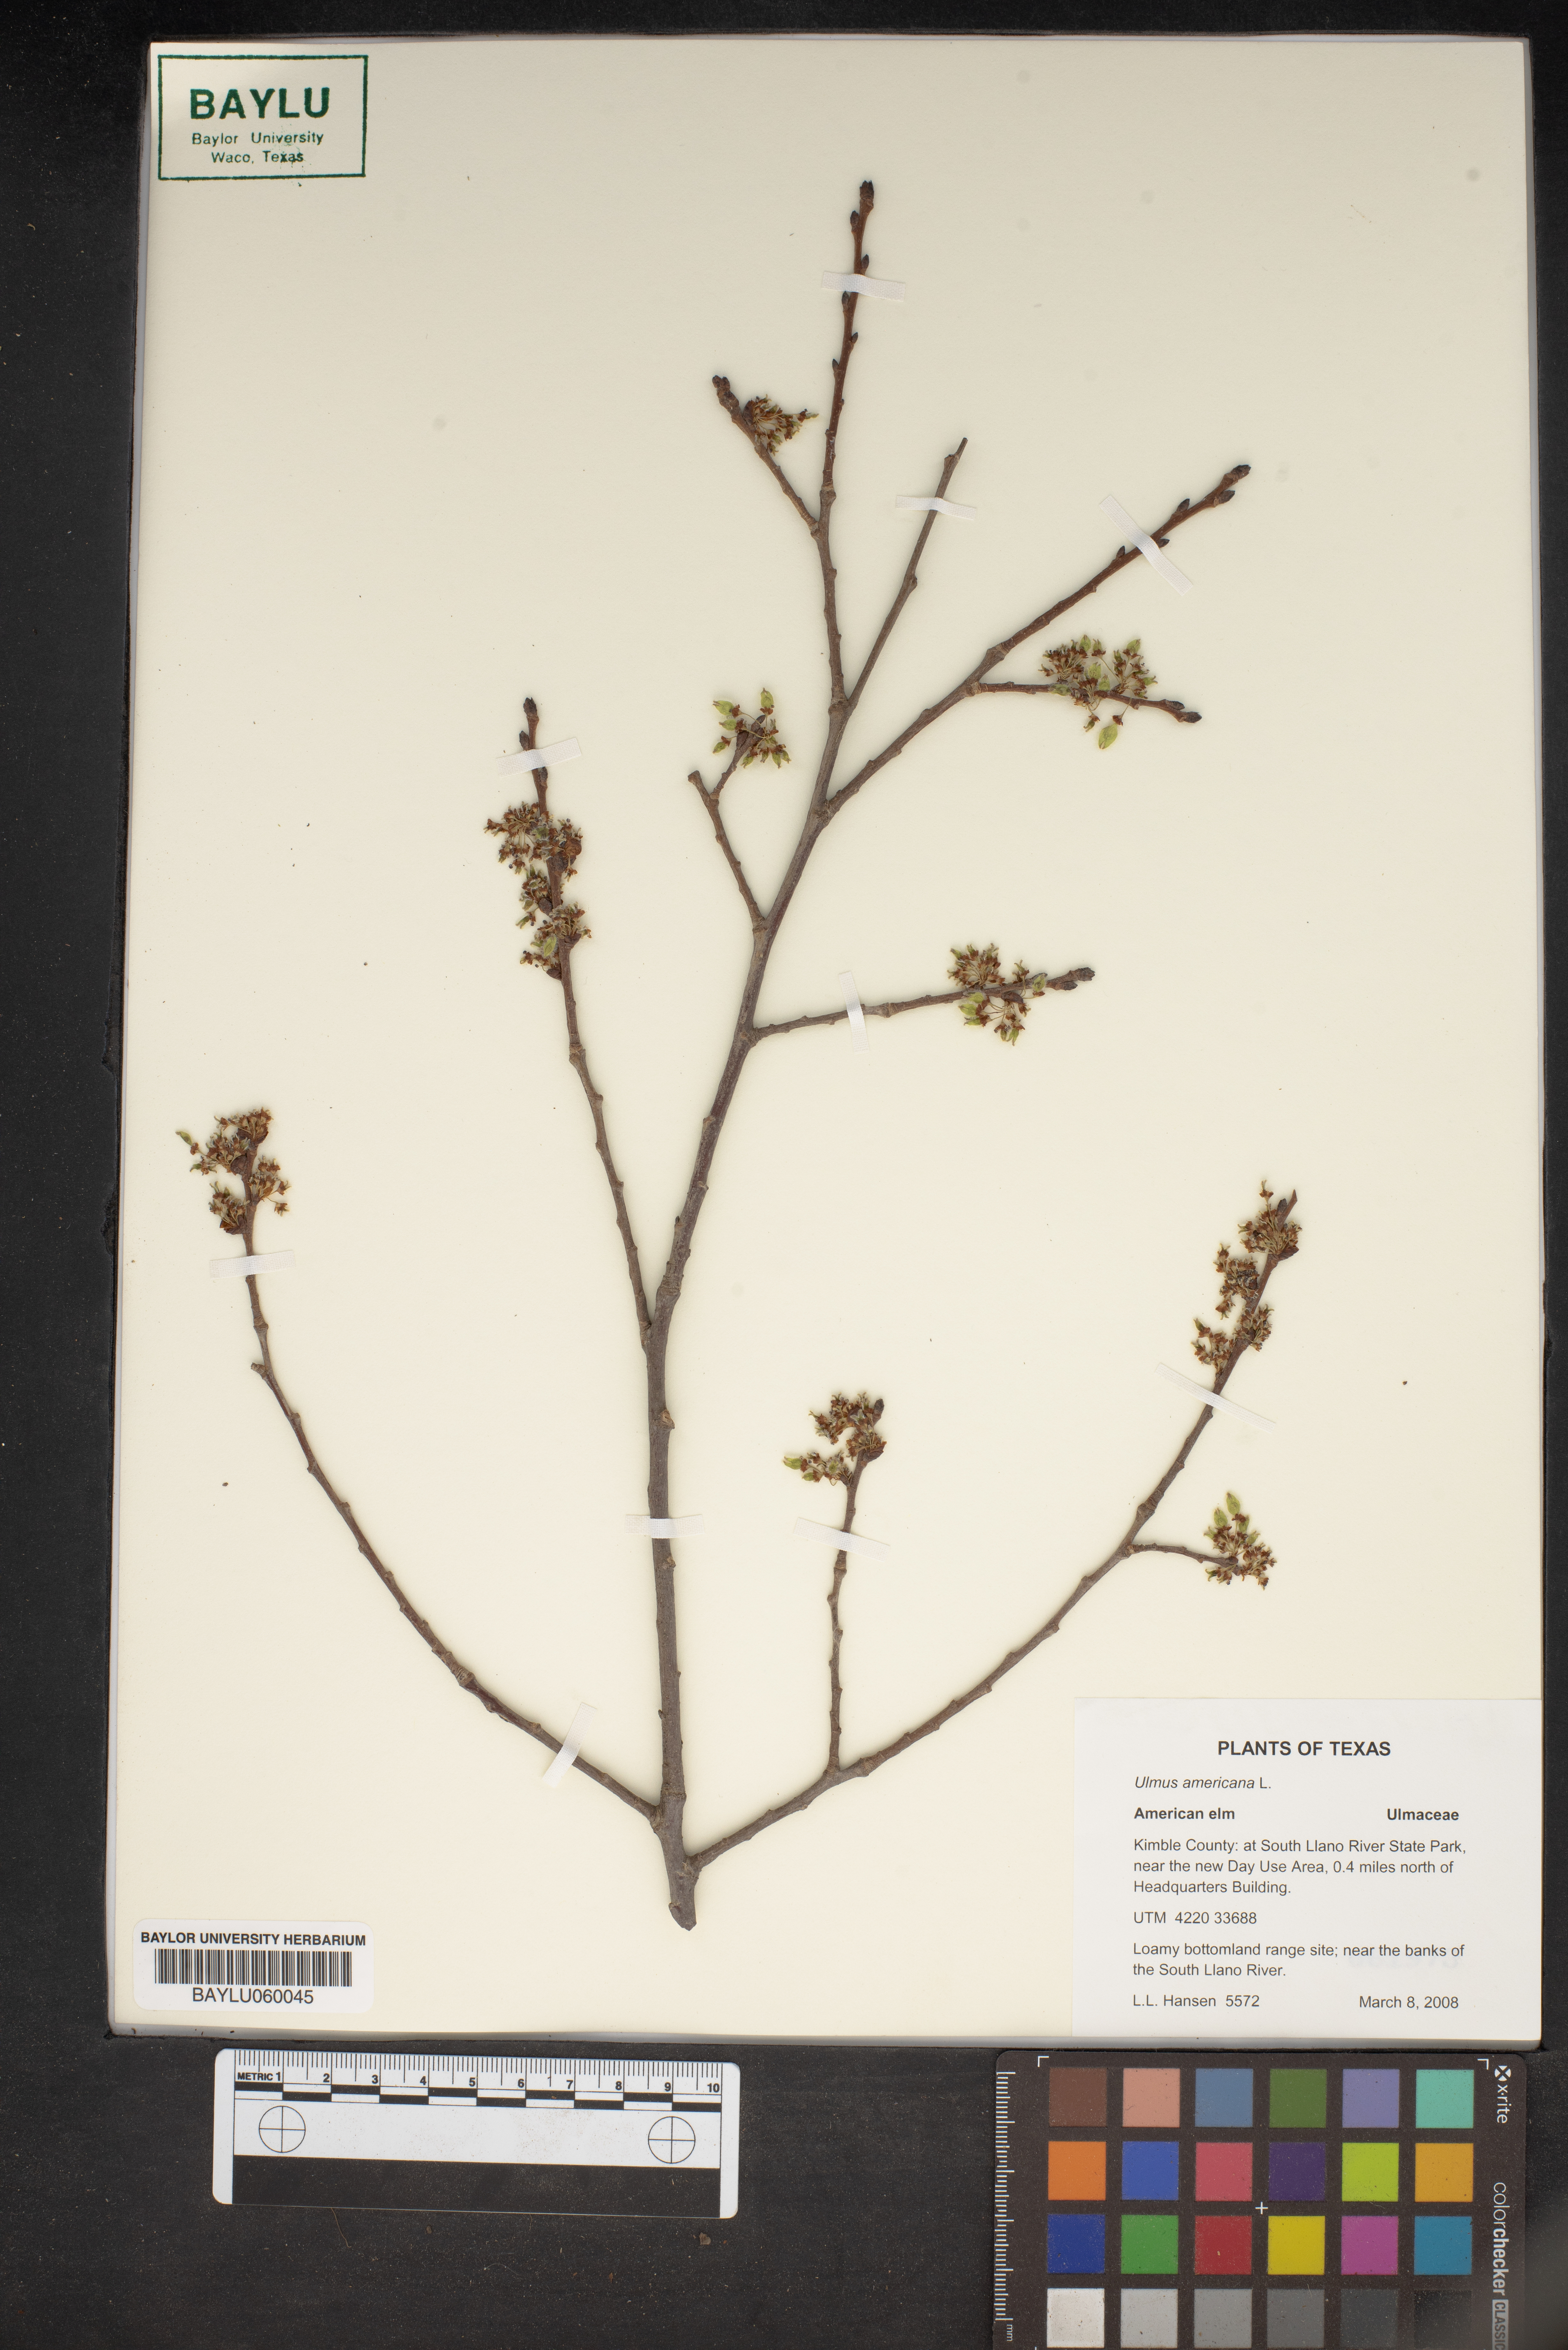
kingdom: Plantae
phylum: Tracheophyta
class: Magnoliopsida
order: Rosales
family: Ulmaceae
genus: Ulmus
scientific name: Ulmus americana
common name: American elm
